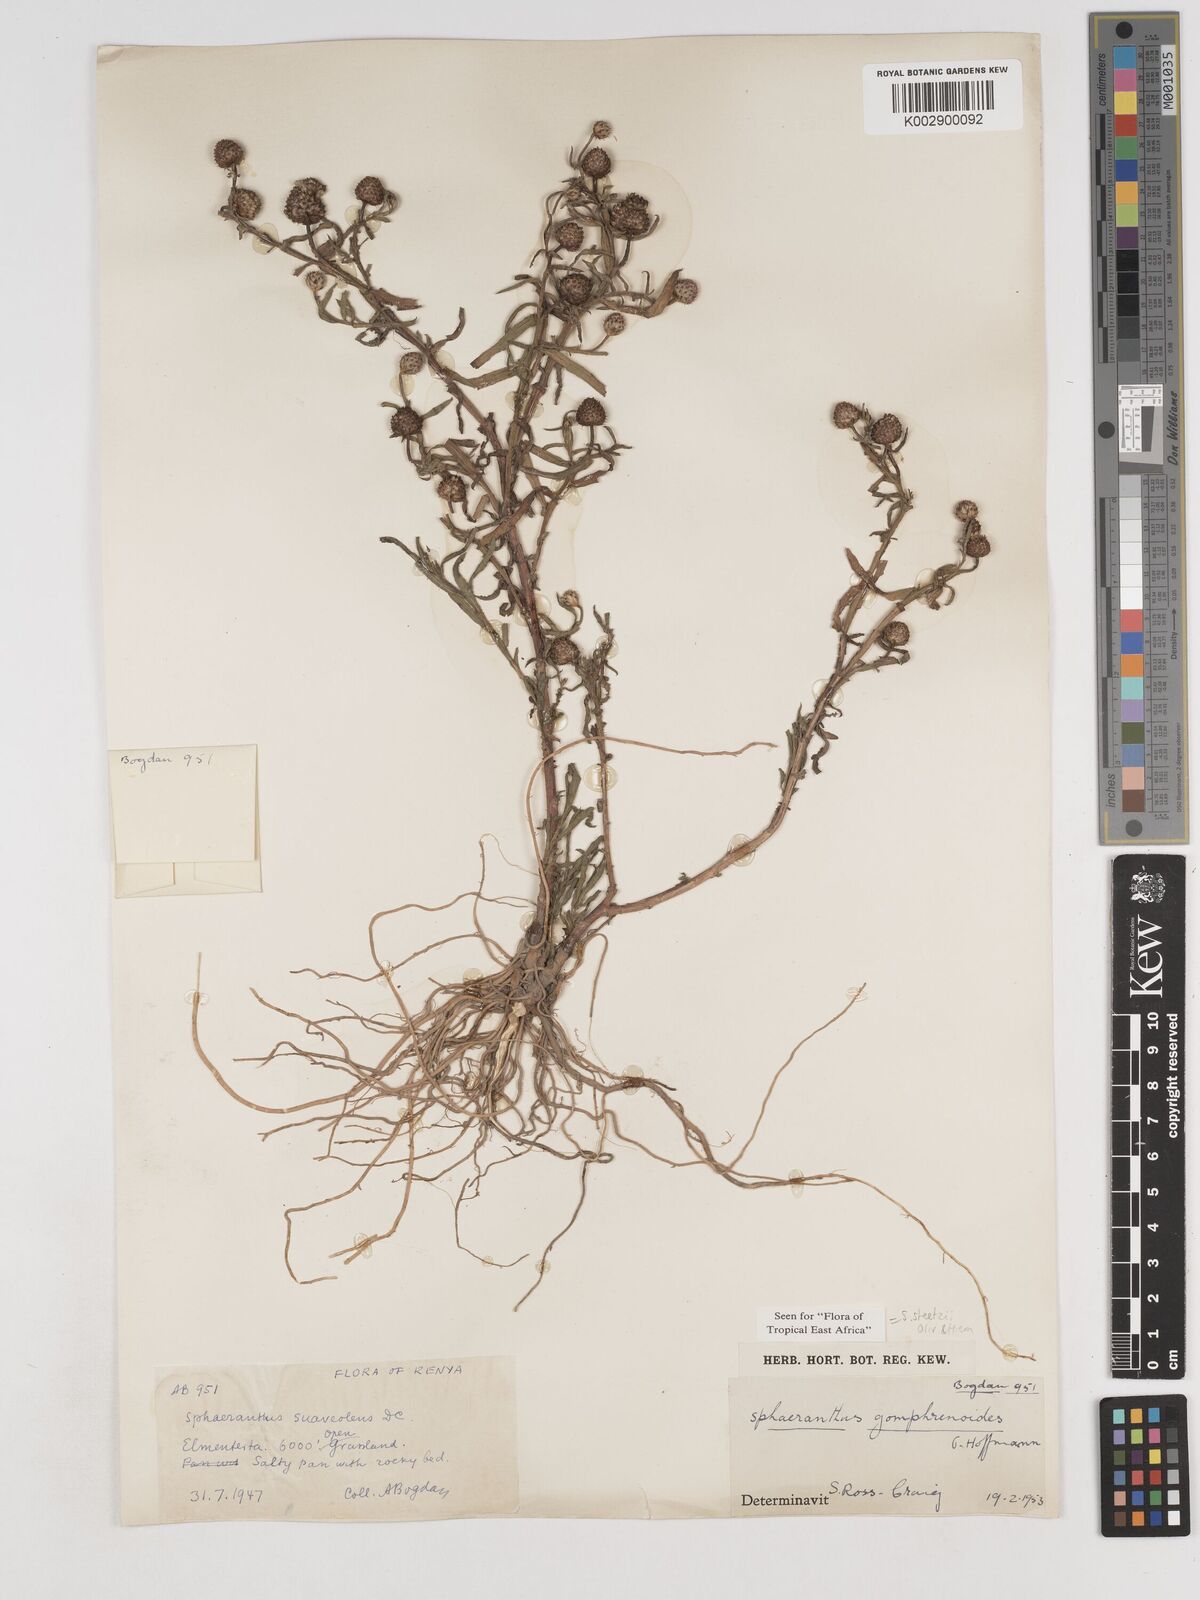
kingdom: Plantae
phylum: Tracheophyta
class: Magnoliopsida
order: Asterales
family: Asteraceae
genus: Sphaeranthus
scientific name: Sphaeranthus steetzii
